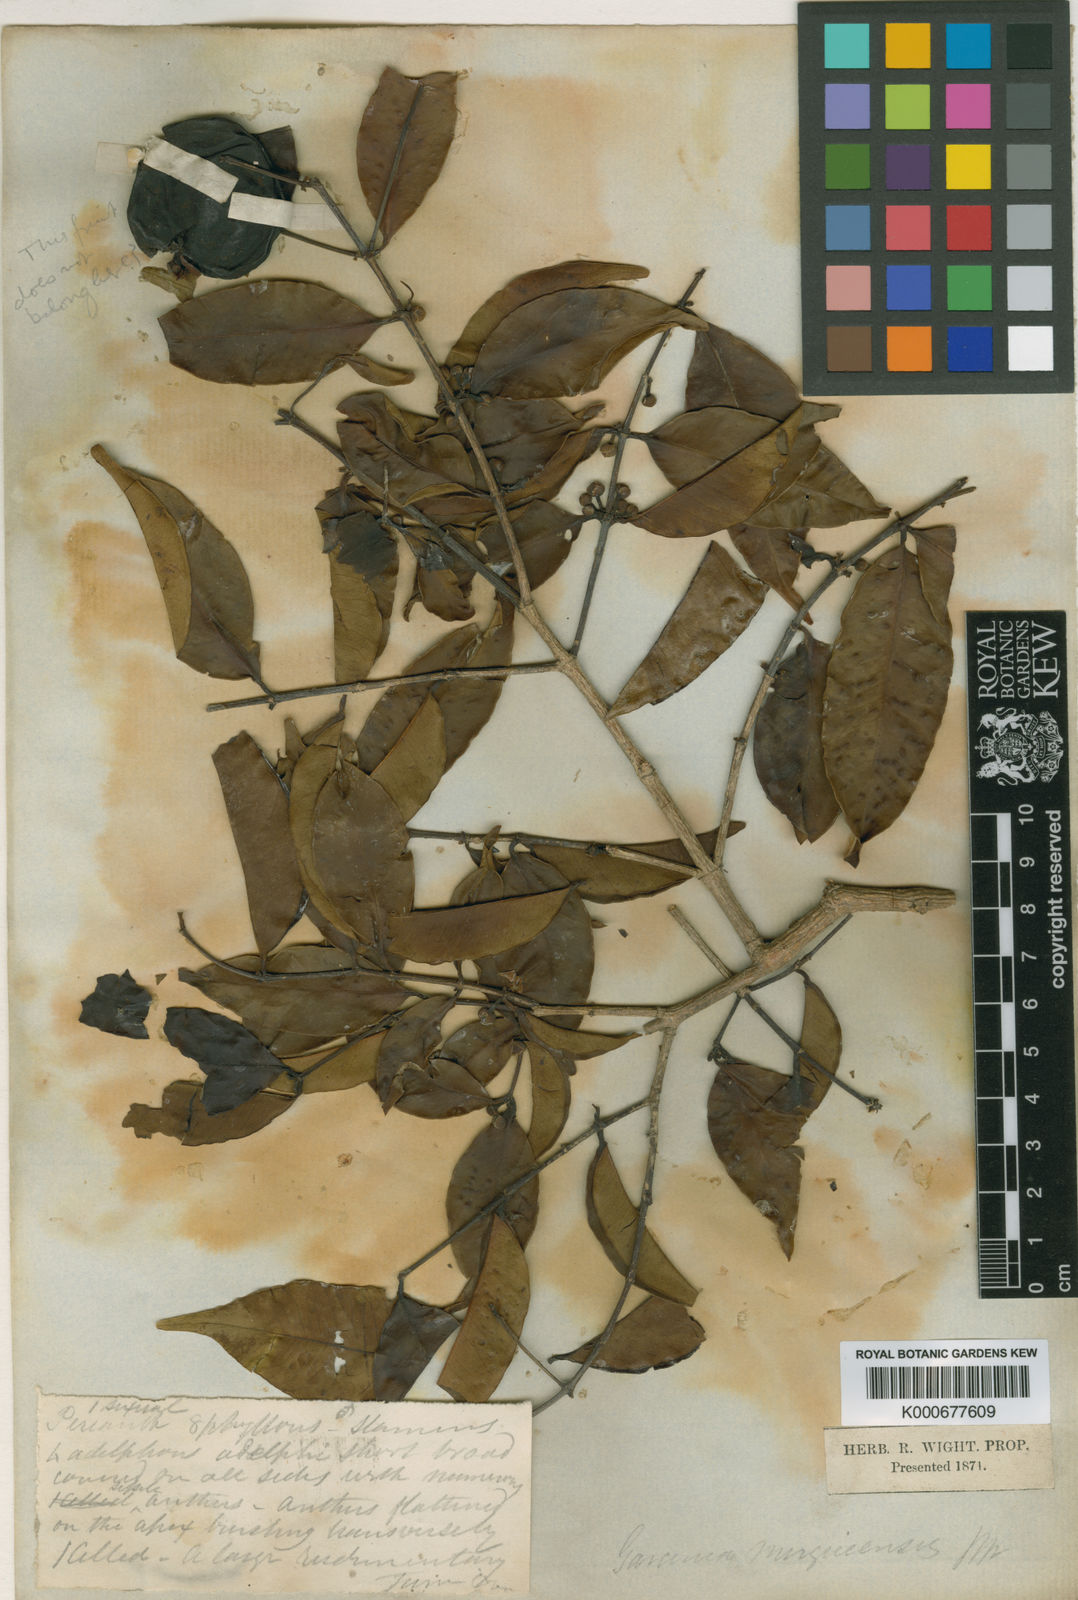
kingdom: Plantae
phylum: Tracheophyta
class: Magnoliopsida
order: Malpighiales
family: Clusiaceae
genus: Garcinia
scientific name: Garcinia merguensis
